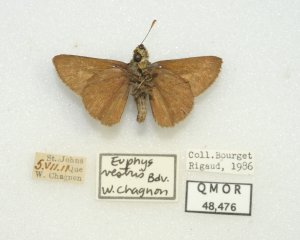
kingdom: Animalia
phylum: Arthropoda
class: Insecta
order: Lepidoptera
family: Hesperiidae
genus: Euphyes
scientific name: Euphyes vestris
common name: Dun Skipper
